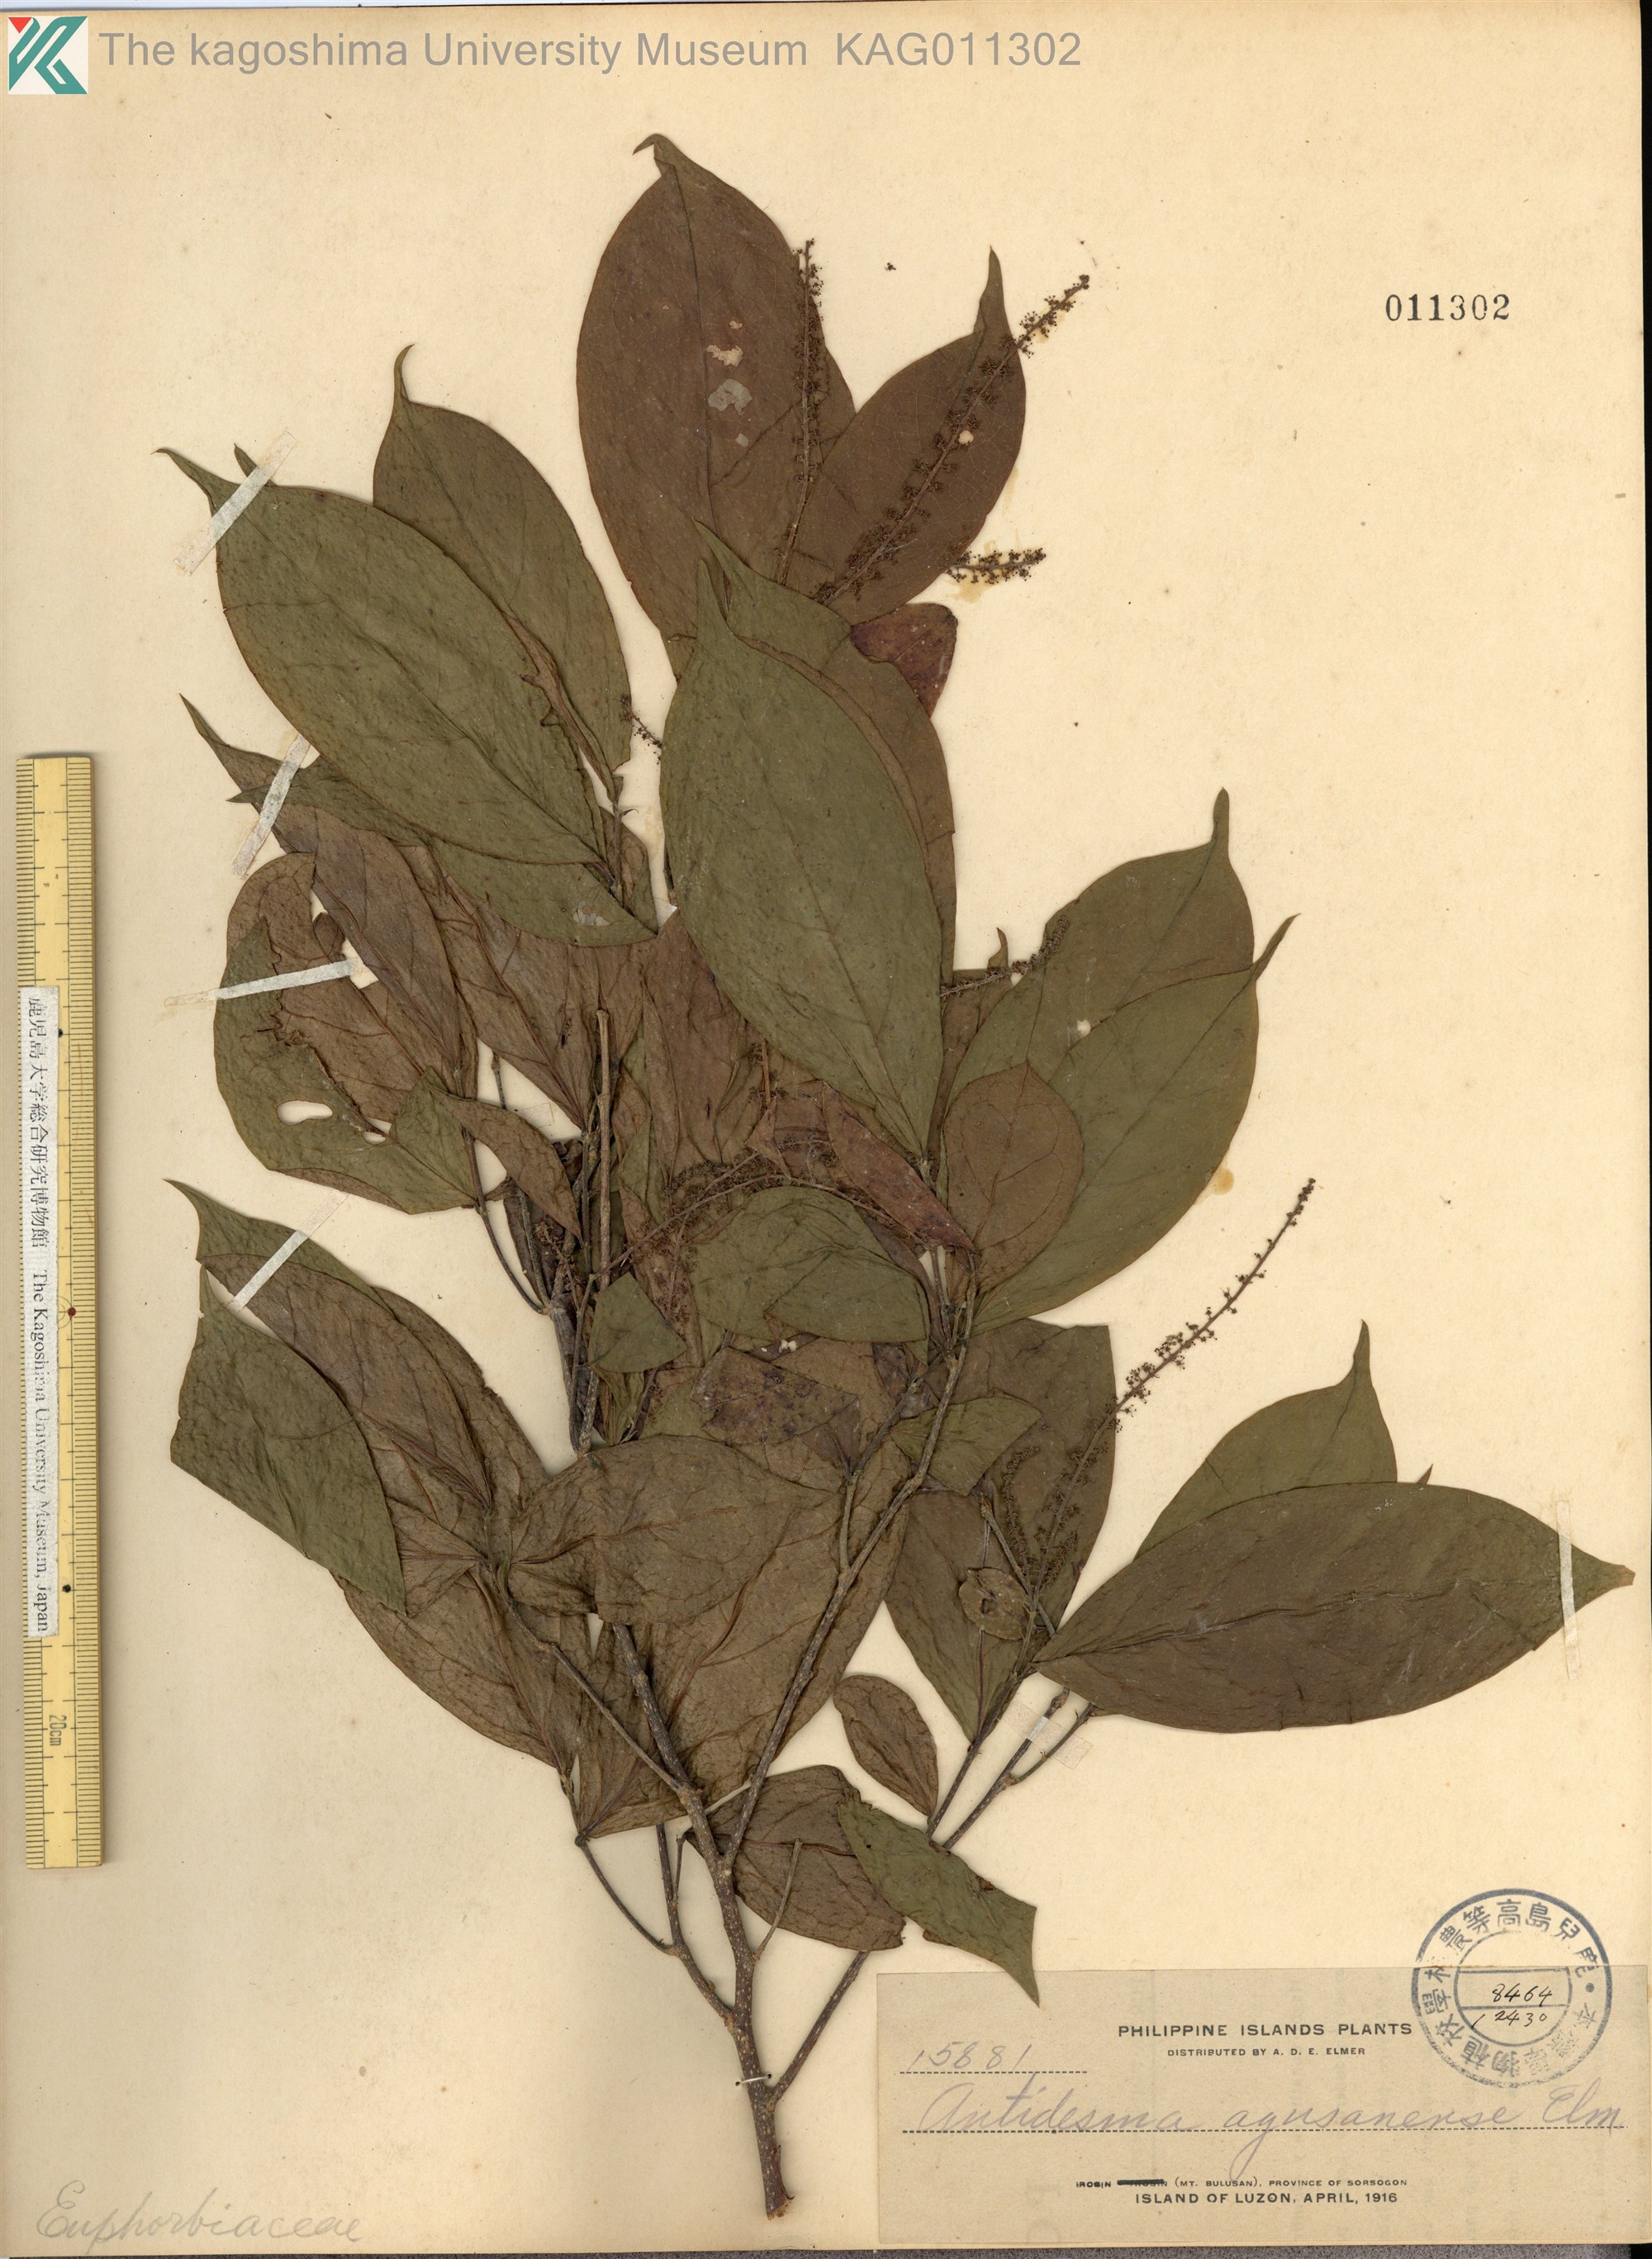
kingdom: Plantae
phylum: Tracheophyta
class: Magnoliopsida
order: Malpighiales
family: Phyllanthaceae
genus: Antidesma
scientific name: Antidesma montanum
